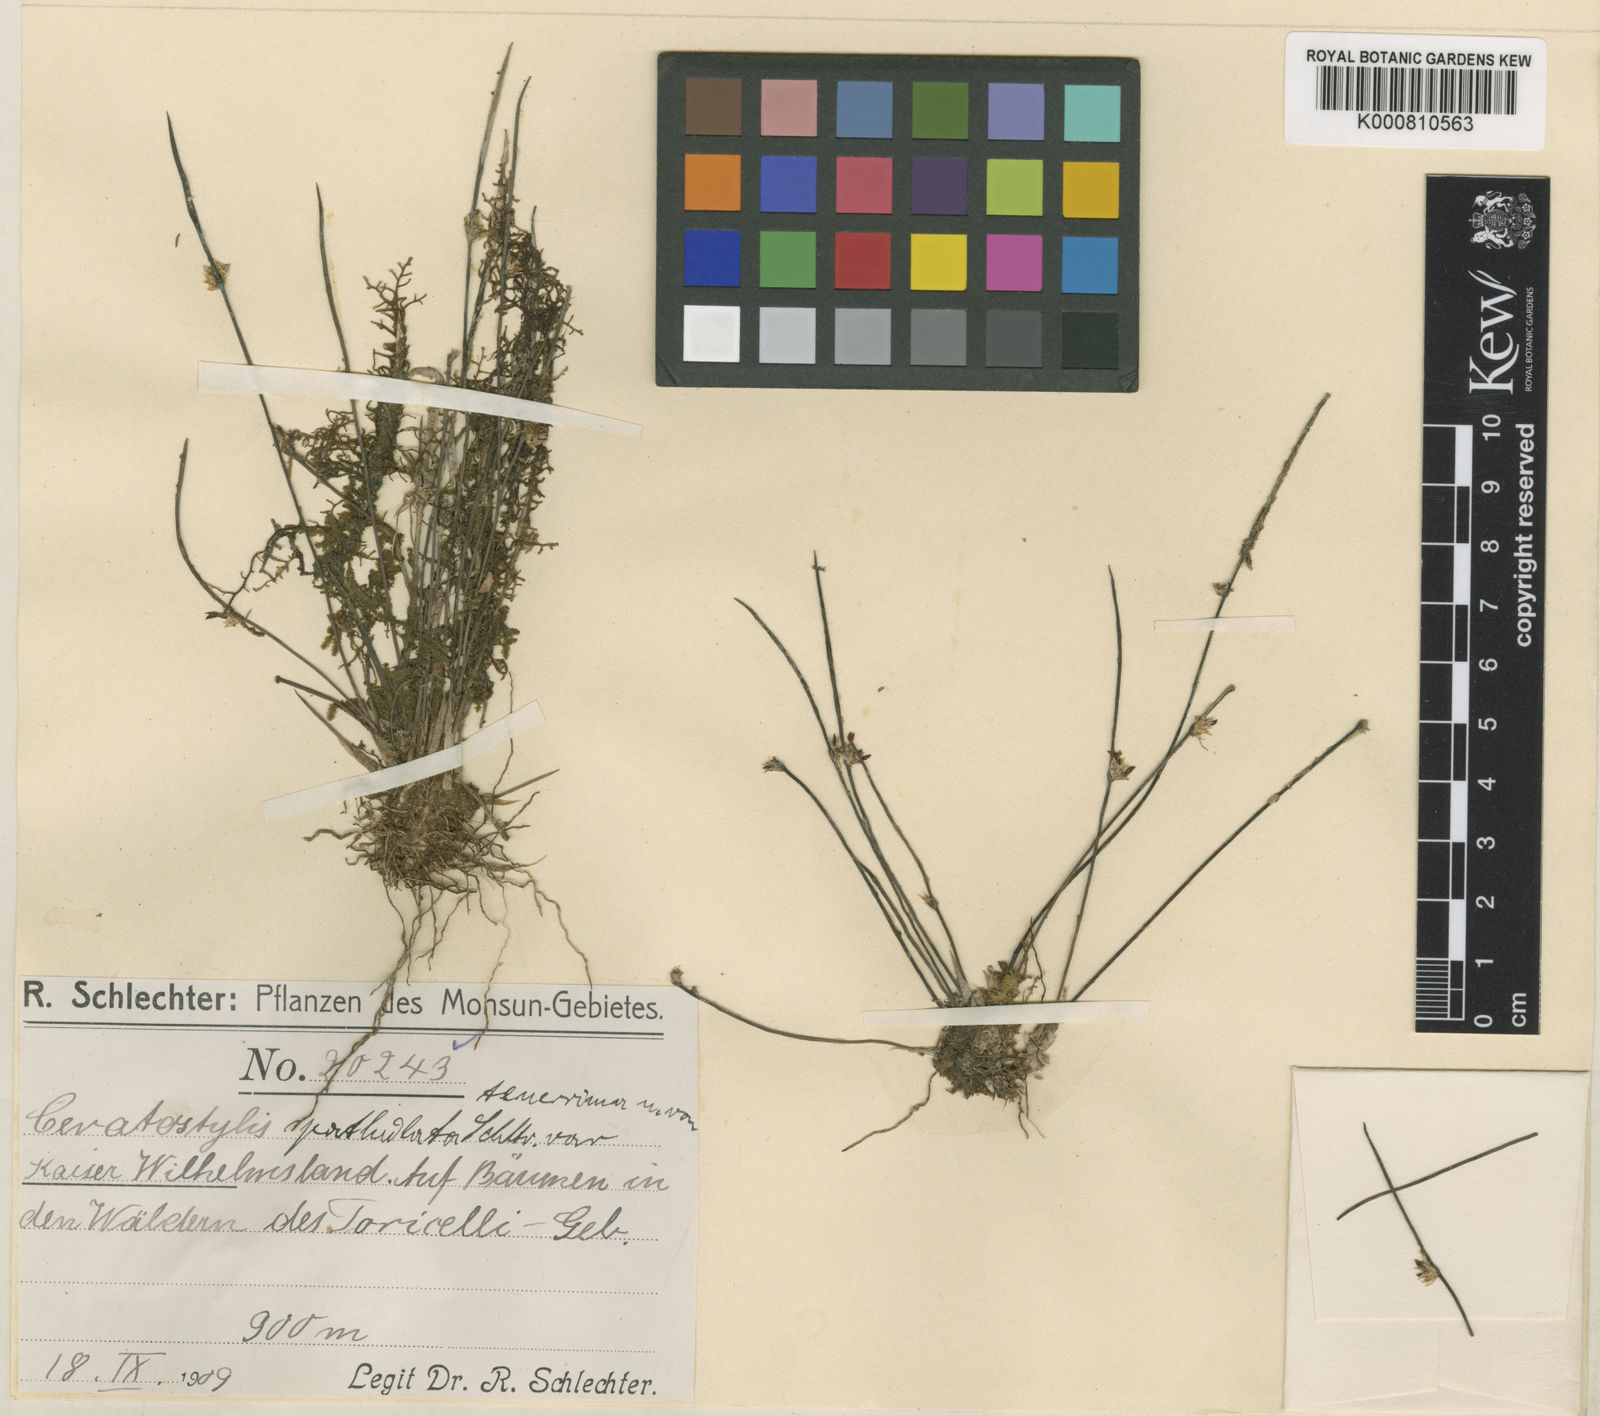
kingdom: Plantae
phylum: Tracheophyta
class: Liliopsida
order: Asparagales
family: Orchidaceae
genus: Ceratostylis
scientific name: Ceratostylis spathulata
